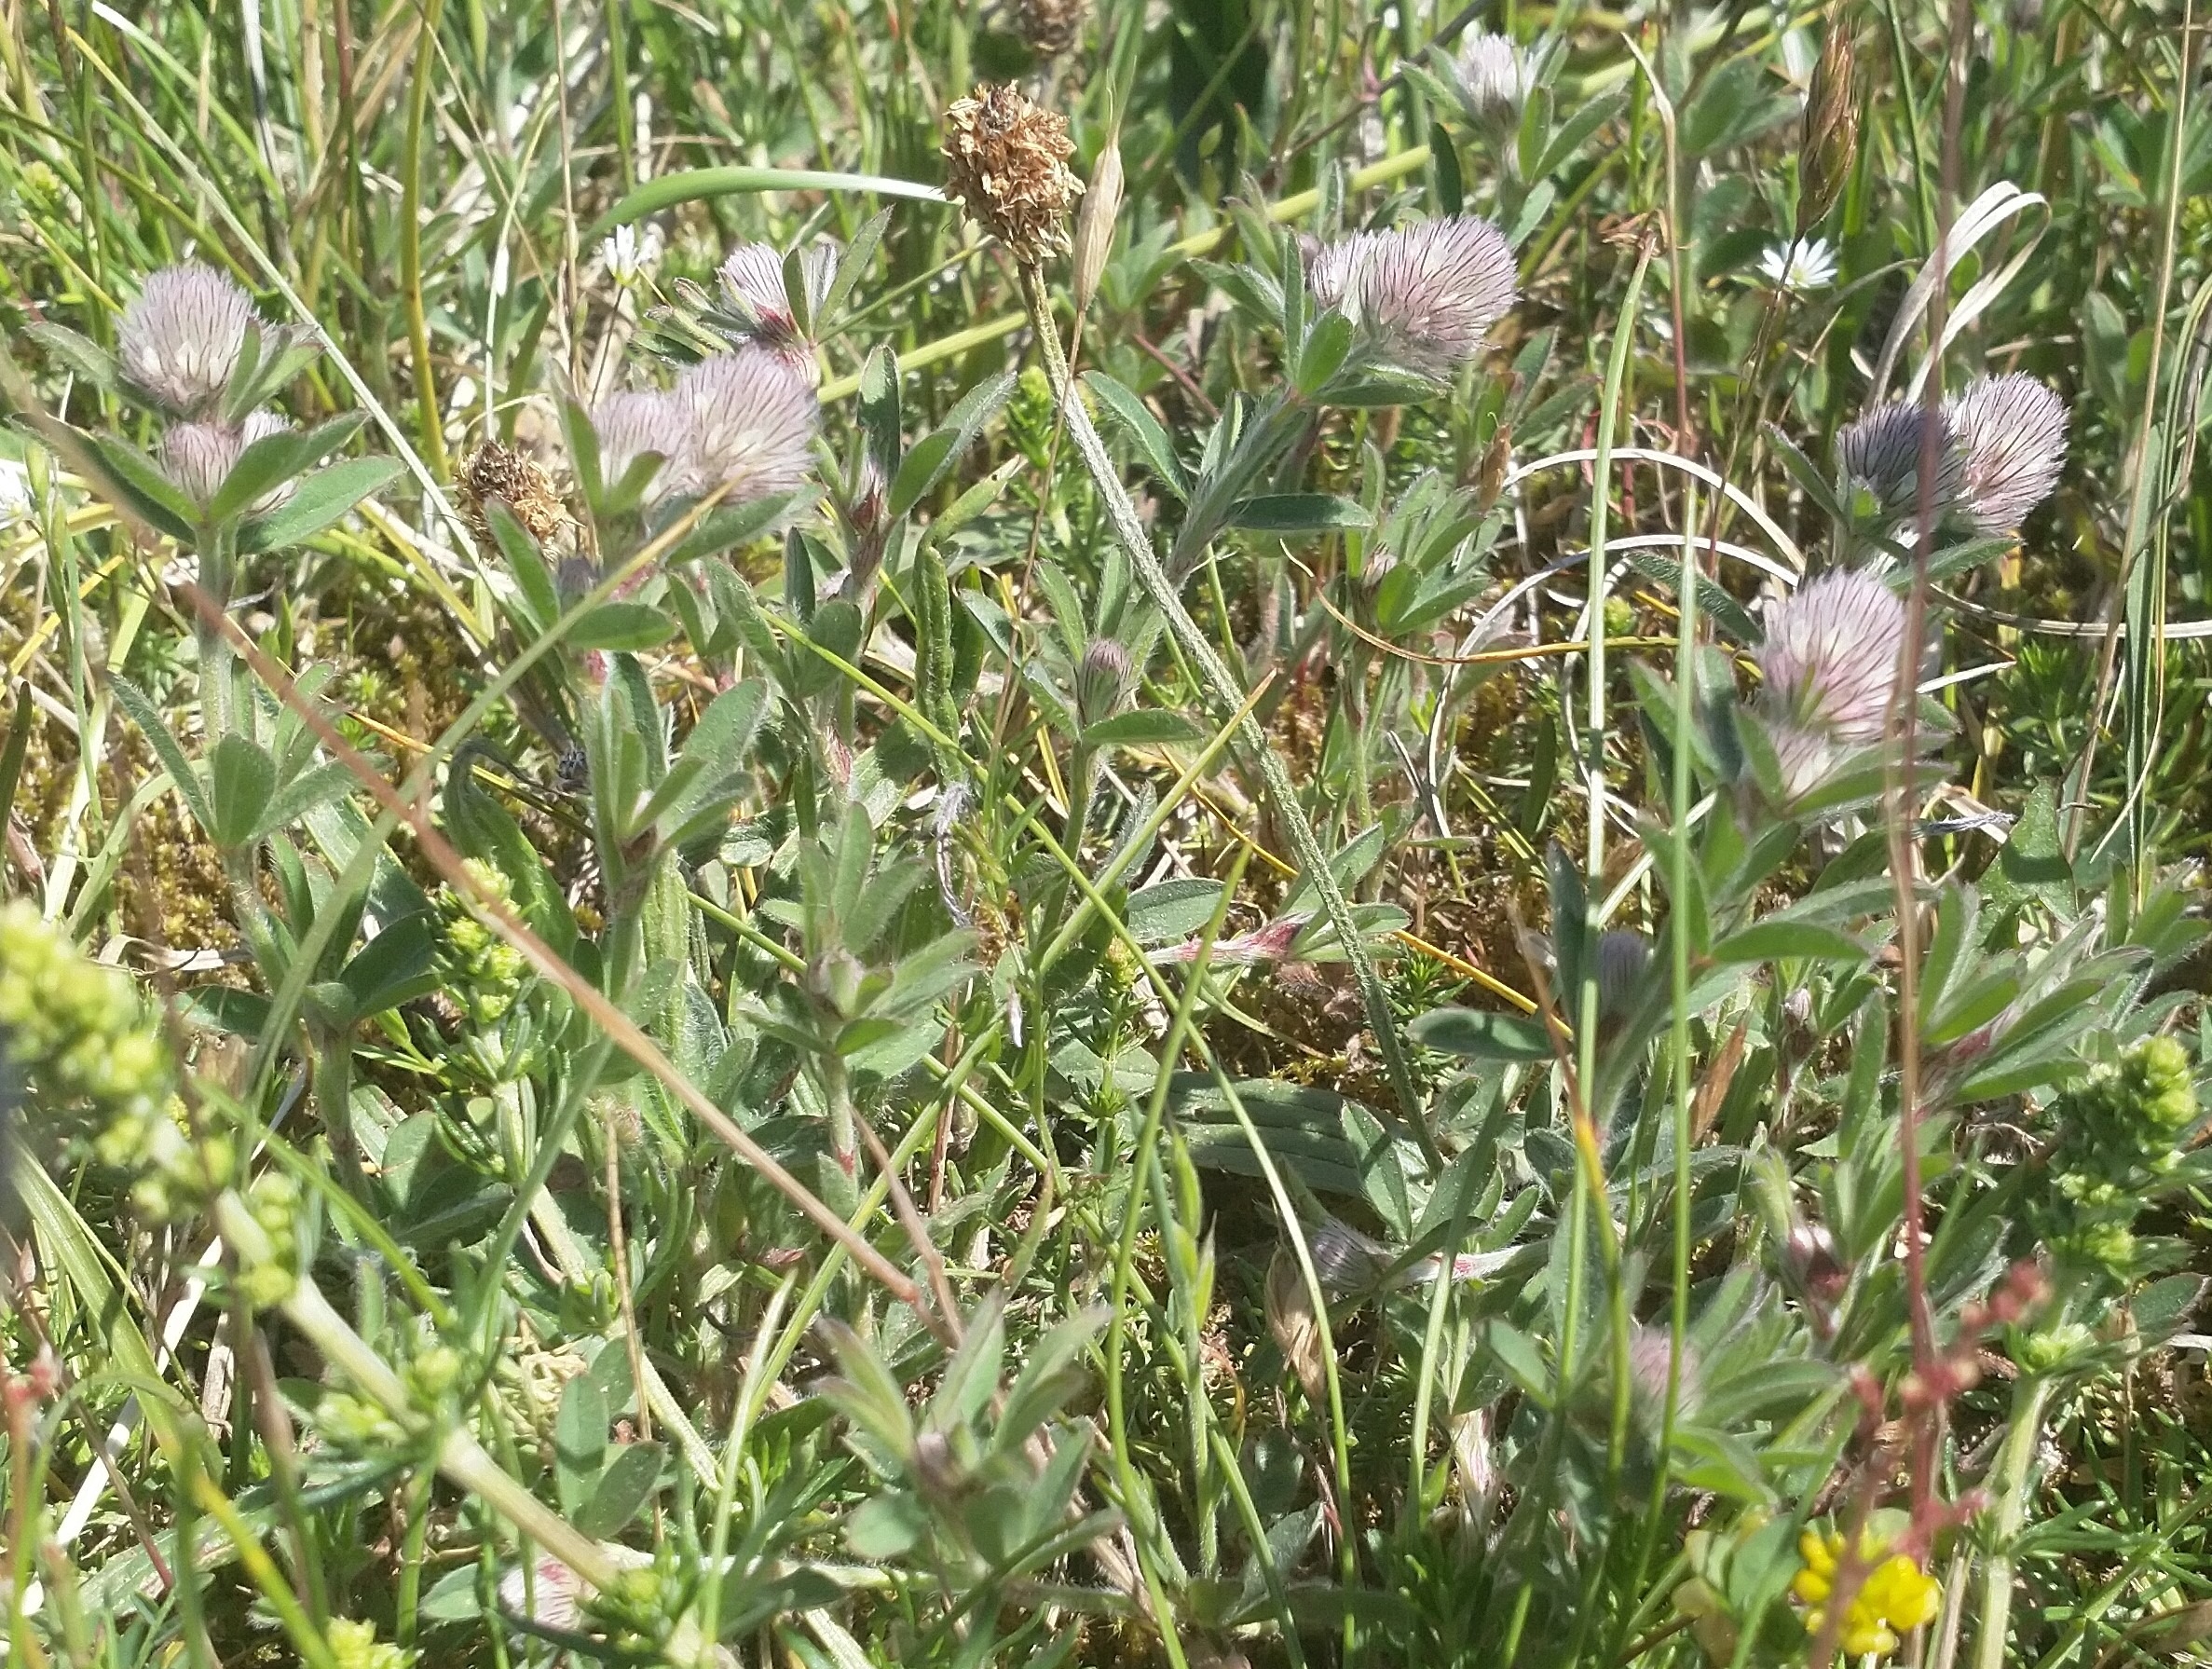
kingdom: Plantae
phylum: Tracheophyta
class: Magnoliopsida
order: Fabales
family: Fabaceae
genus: Trifolium
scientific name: Trifolium arvense
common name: Hare-kløver
